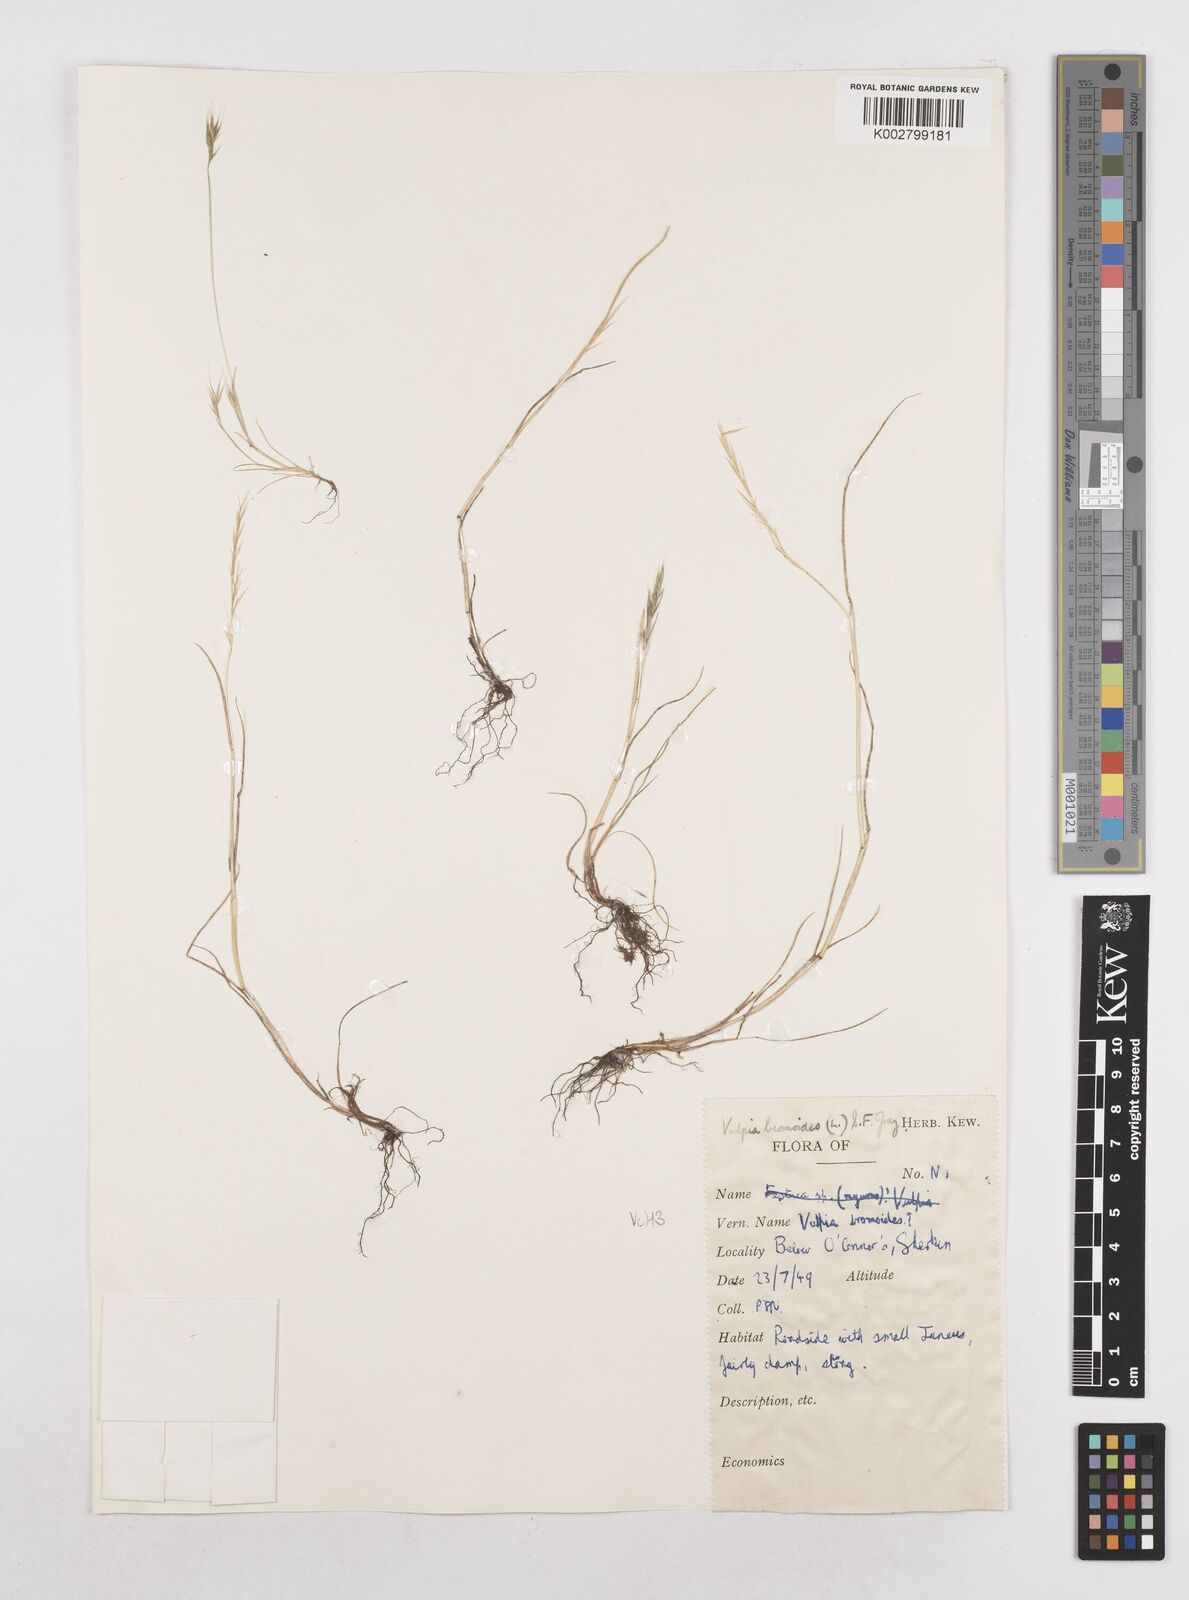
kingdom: Plantae
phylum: Tracheophyta
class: Liliopsida
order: Poales
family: Poaceae
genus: Festuca
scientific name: Festuca bromoides
